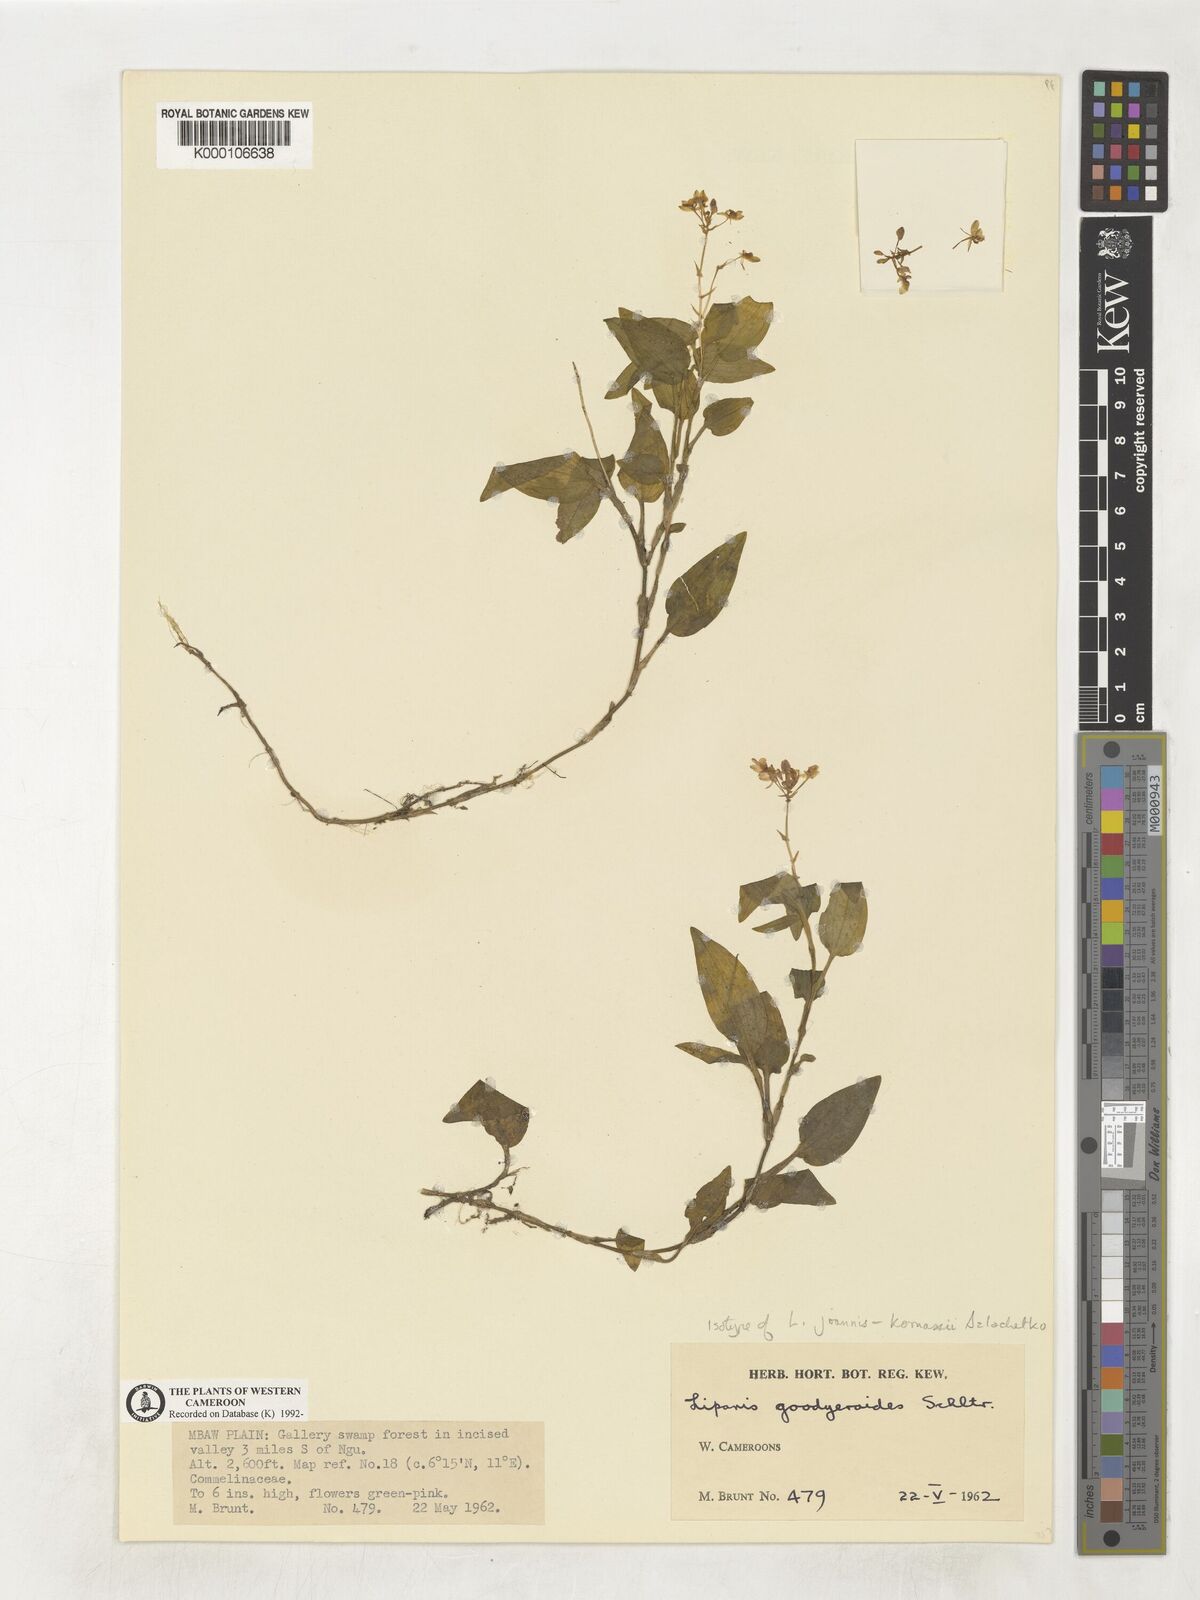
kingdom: Plantae
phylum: Tracheophyta
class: Liliopsida
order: Asparagales
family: Orchidaceae
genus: Liparis
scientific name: Liparis goodyeroides
